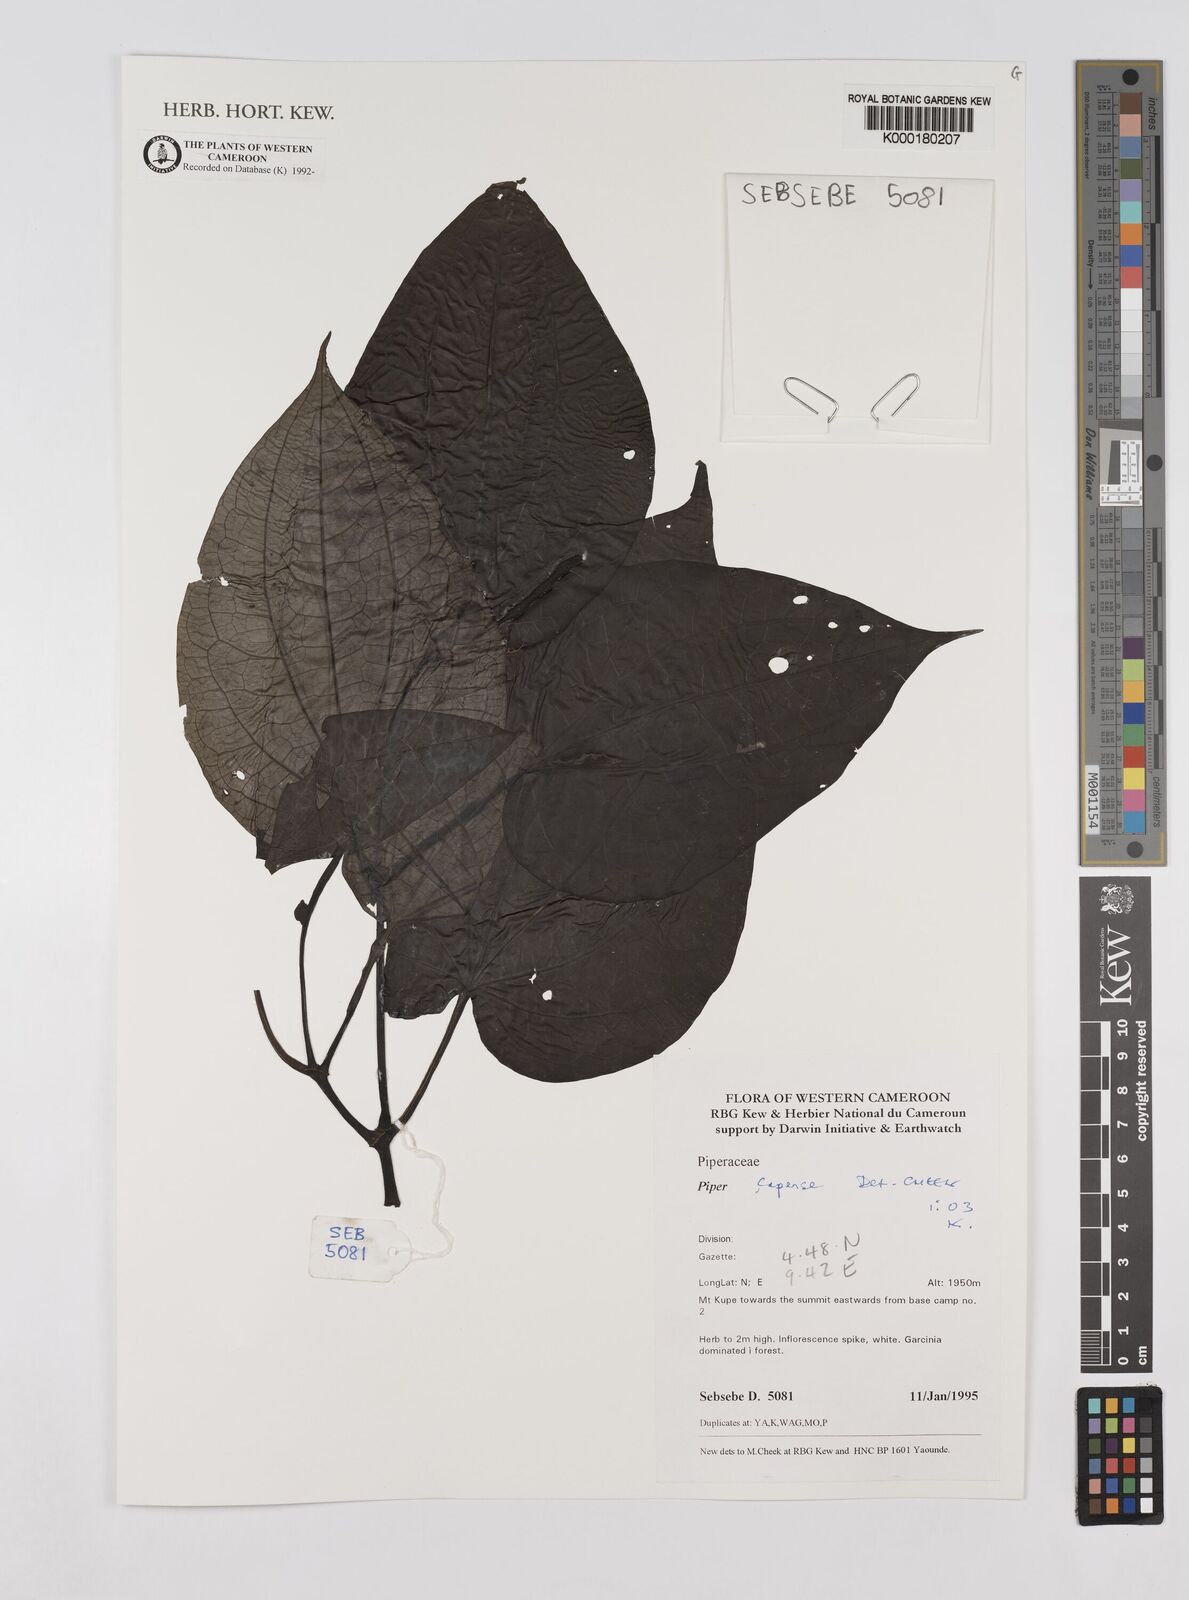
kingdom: Plantae
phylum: Tracheophyta
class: Magnoliopsida
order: Piperales
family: Piperaceae
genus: Piper
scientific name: Piper capense
